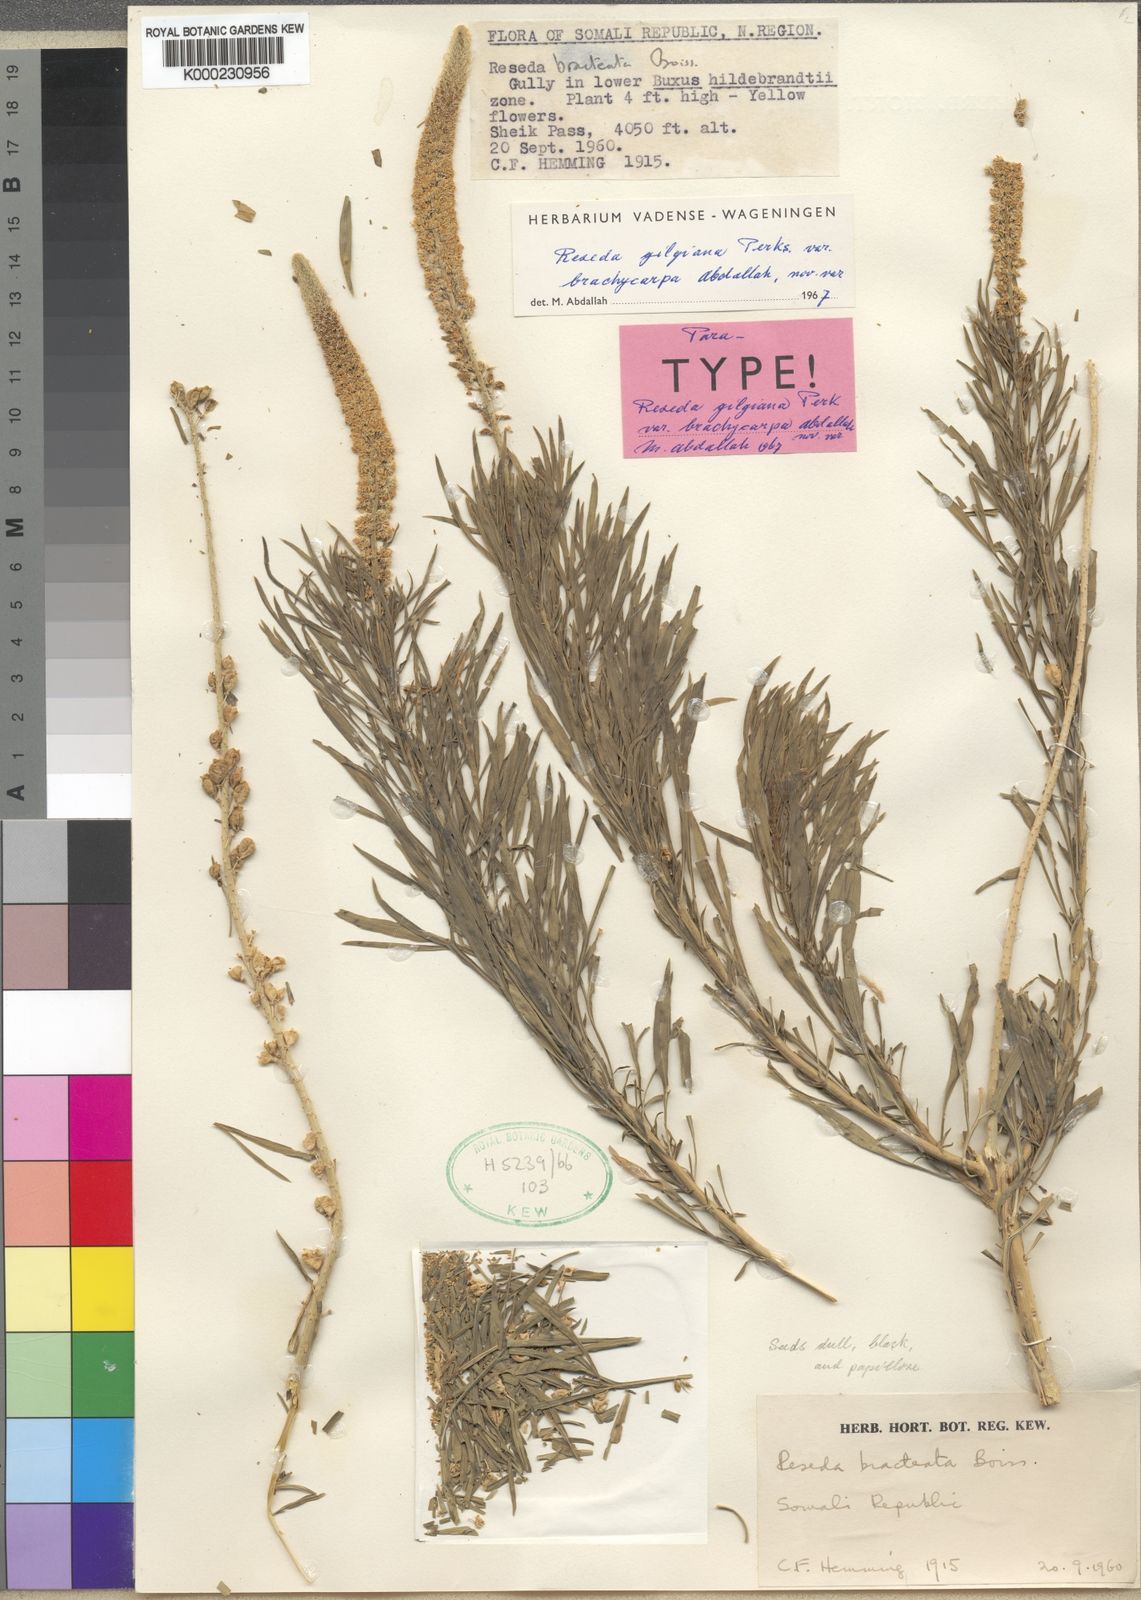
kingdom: Plantae
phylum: Tracheophyta
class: Magnoliopsida
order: Brassicales
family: Resedaceae
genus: Reseda
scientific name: Reseda amblycarpa
